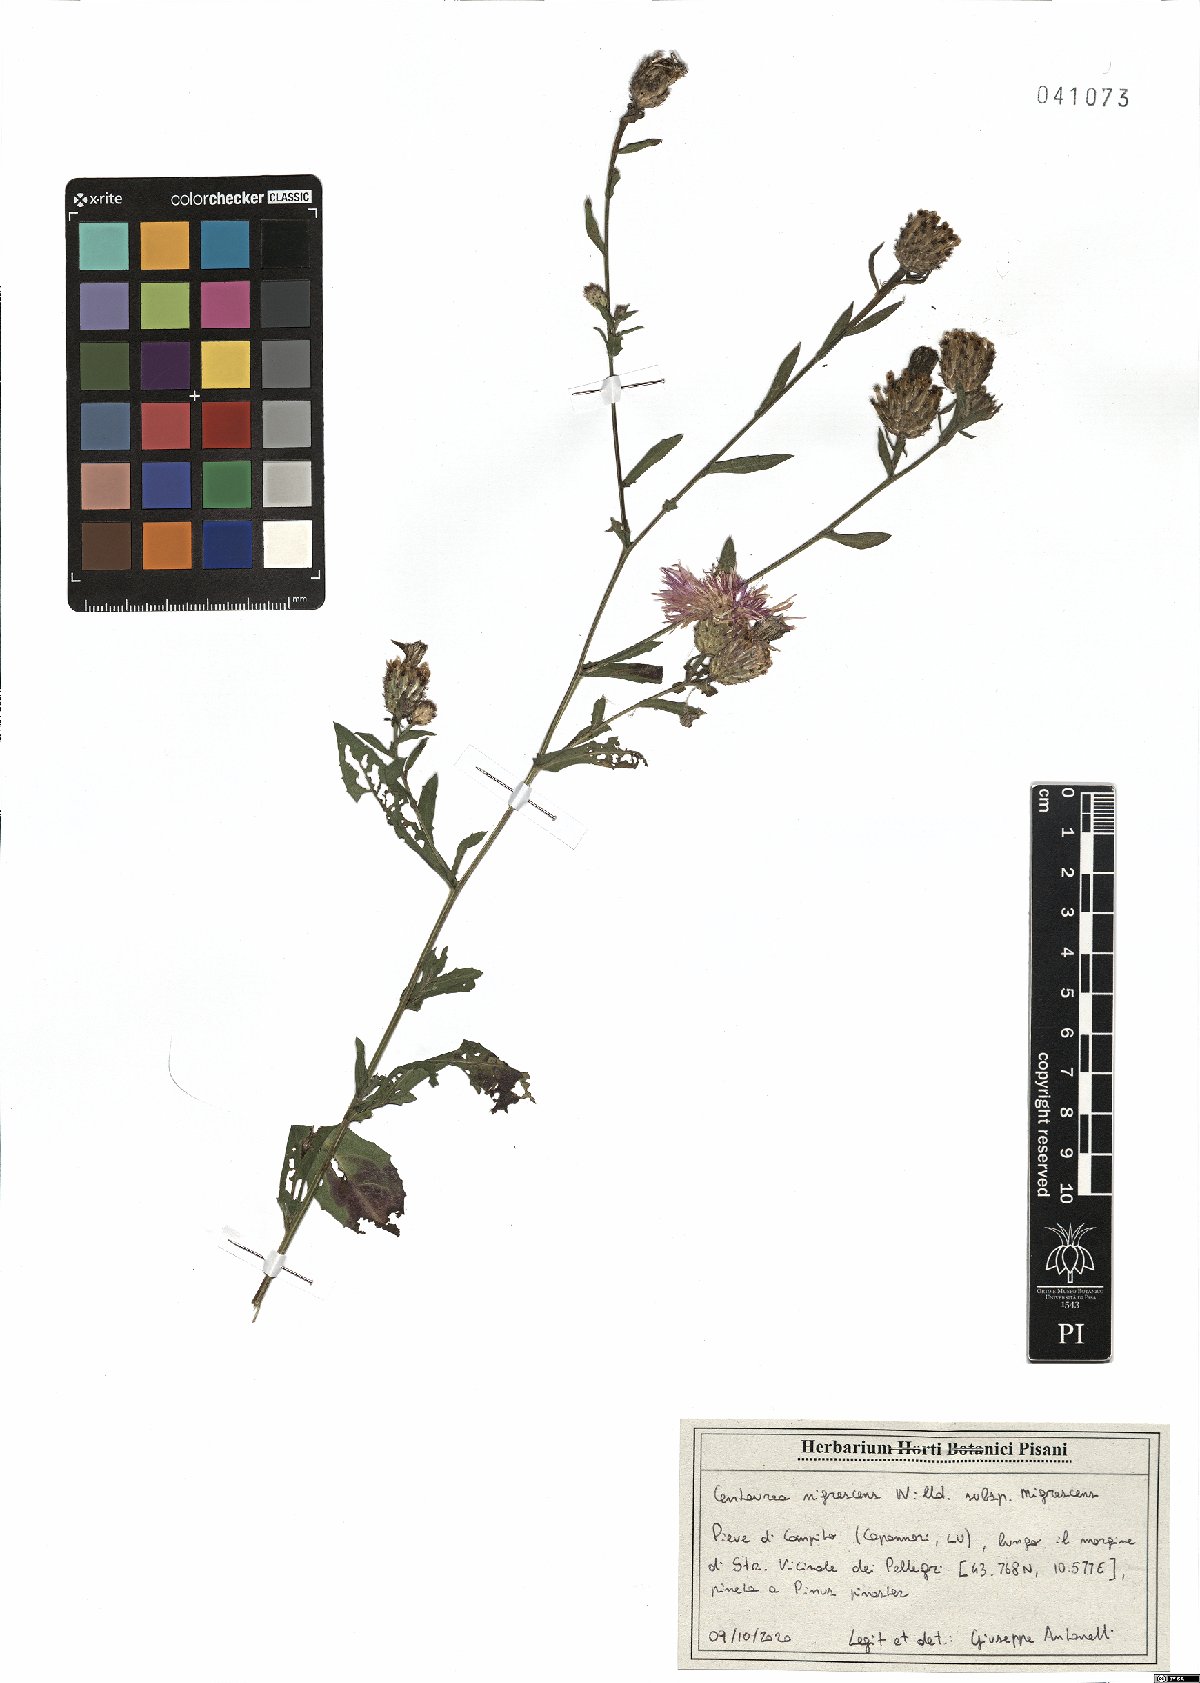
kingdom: Plantae
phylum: Tracheophyta
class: Magnoliopsida
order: Asterales
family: Asteraceae
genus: Centaurea
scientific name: Centaurea nigrescens
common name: Tyrol knapweed
